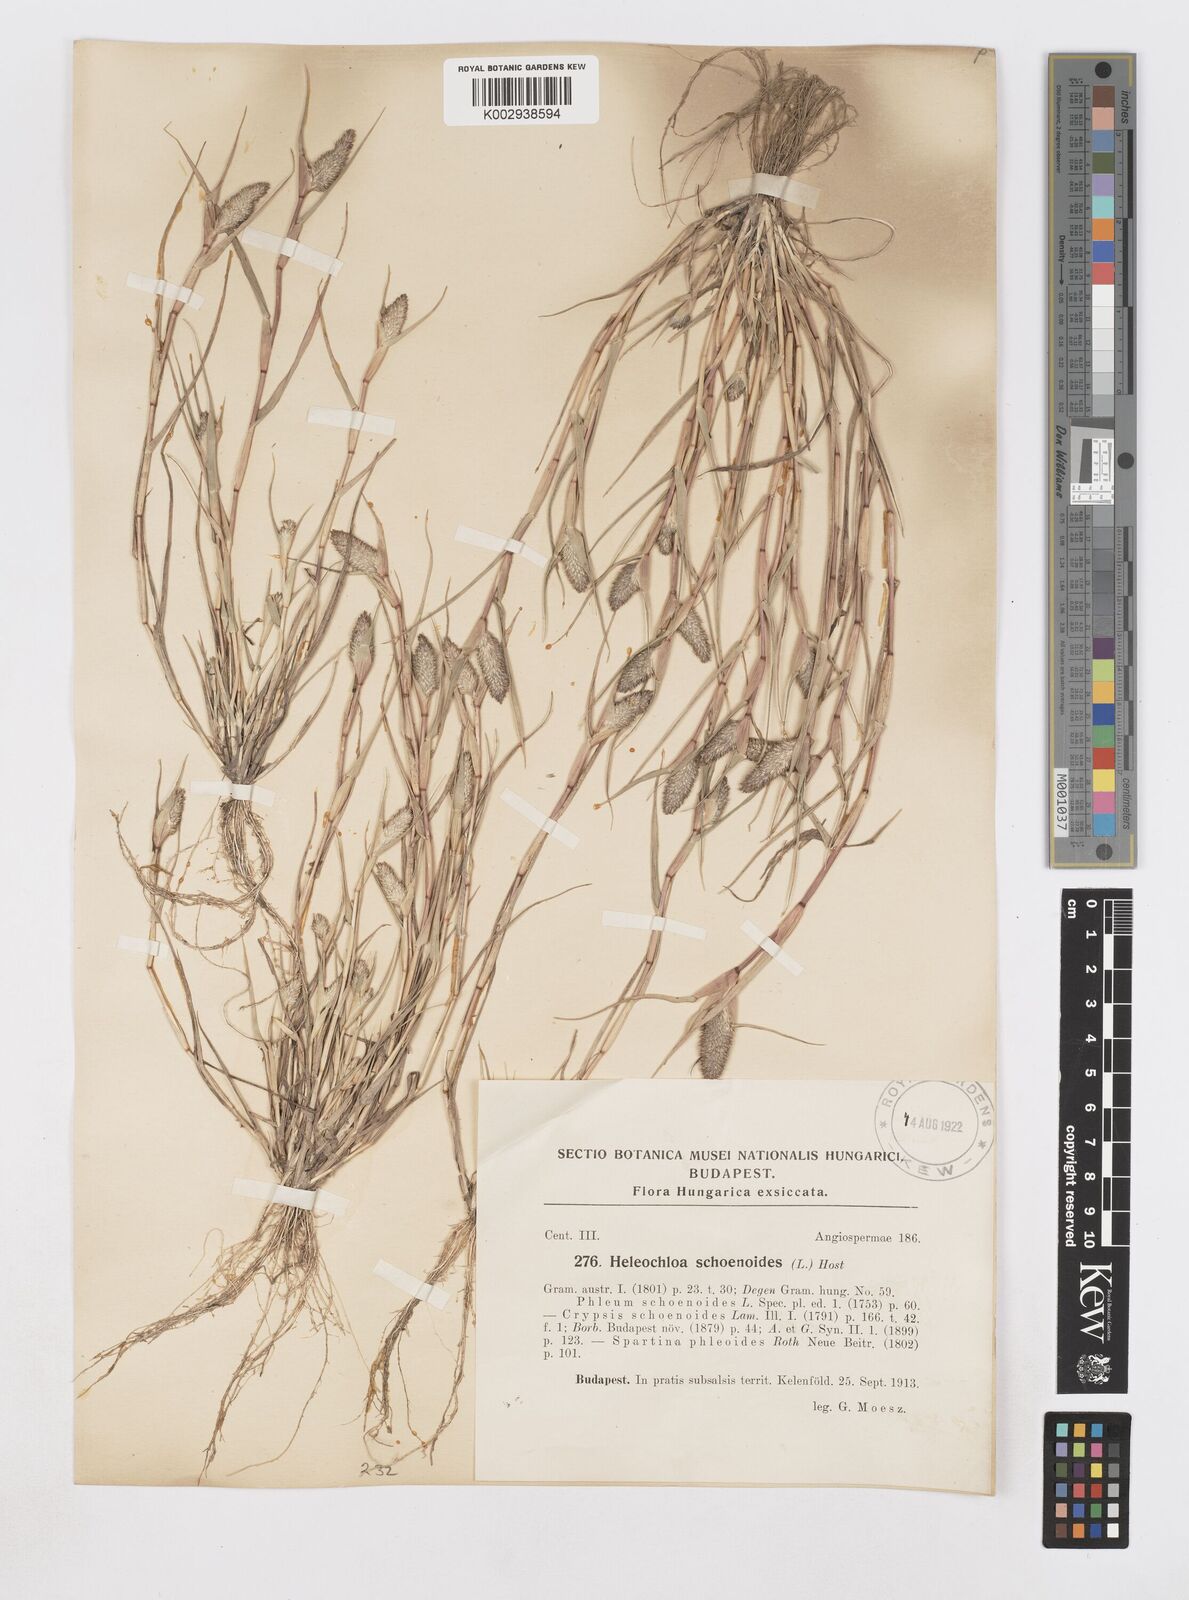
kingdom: Plantae
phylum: Tracheophyta
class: Liliopsida
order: Poales
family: Poaceae
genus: Sporobolus
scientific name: Sporobolus schoenoides
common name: Rush-like timothy
